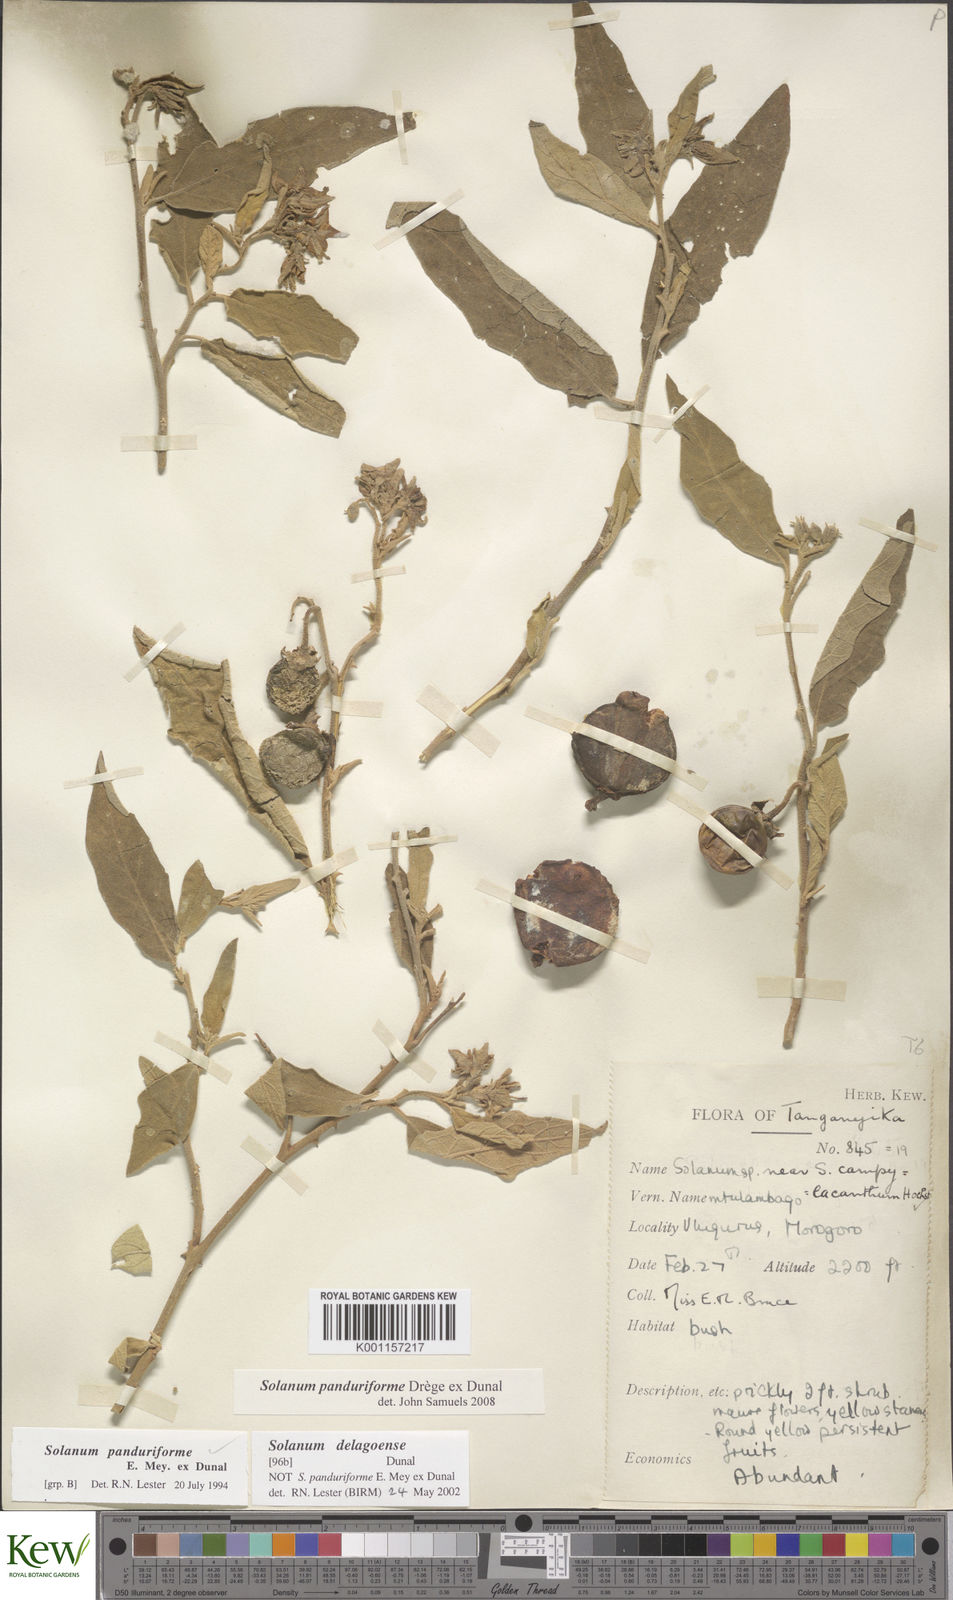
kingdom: Plantae
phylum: Tracheophyta
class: Magnoliopsida
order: Solanales
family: Solanaceae
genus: Solanum
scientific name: Solanum campylacanthum
